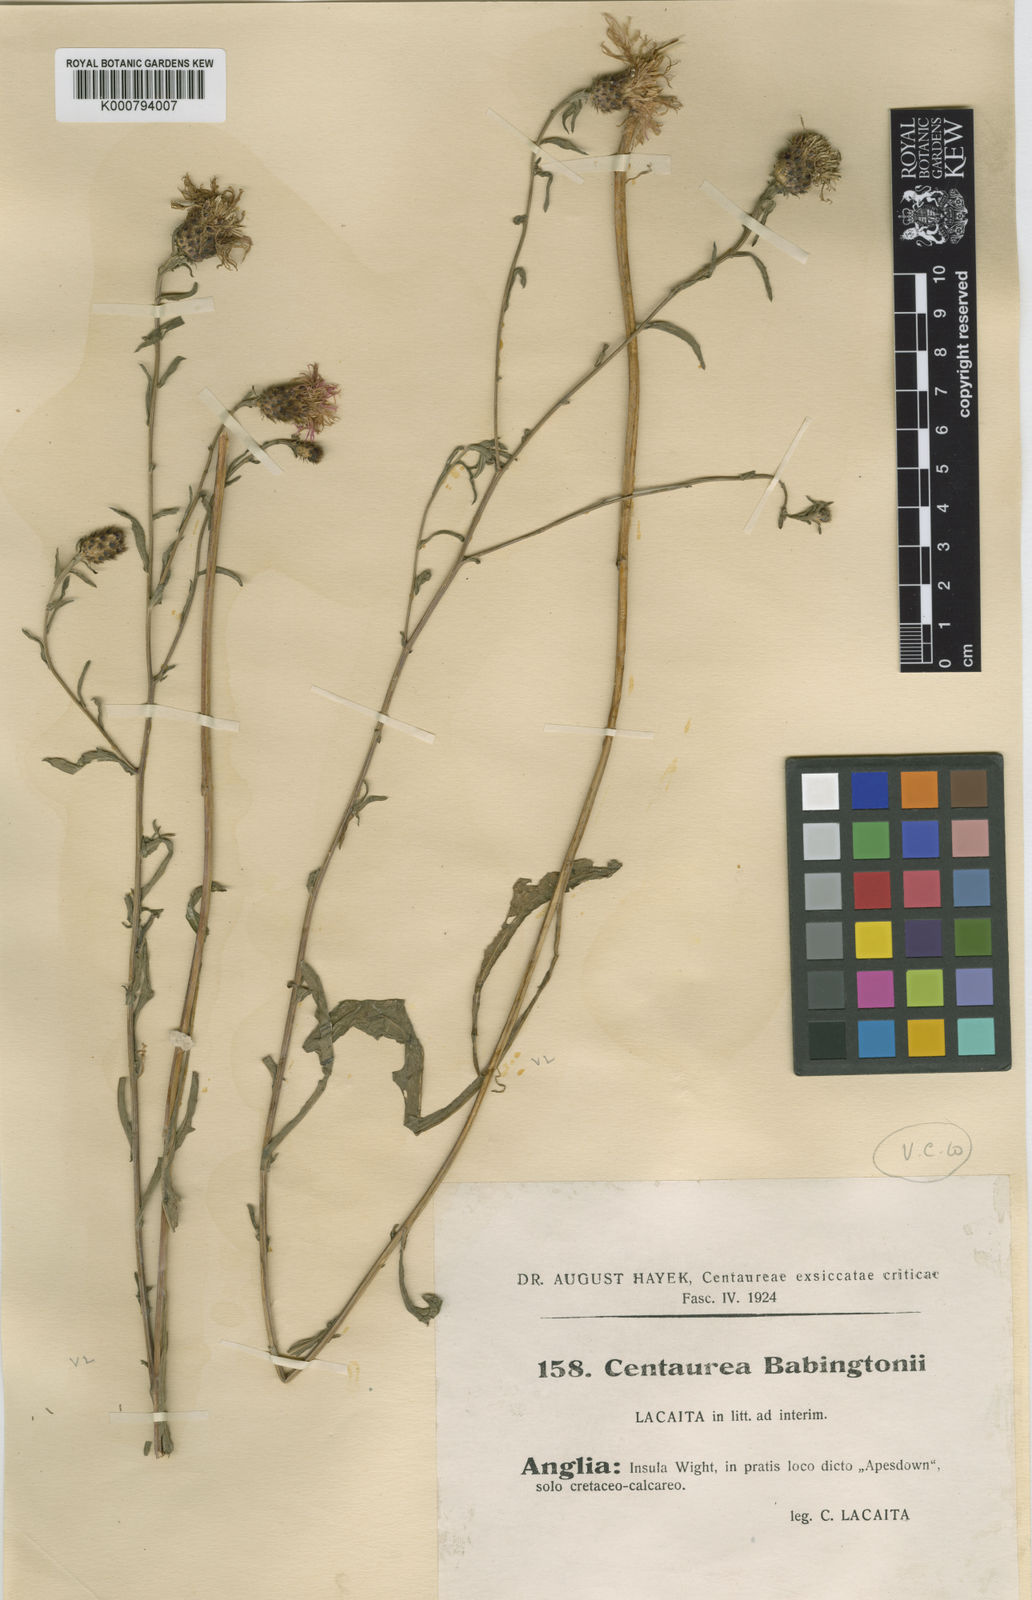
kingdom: Plantae
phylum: Tracheophyta
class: Magnoliopsida
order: Asterales
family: Asteraceae
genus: Centaurea
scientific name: Centaurea debeauxii
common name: Slender knapweed
